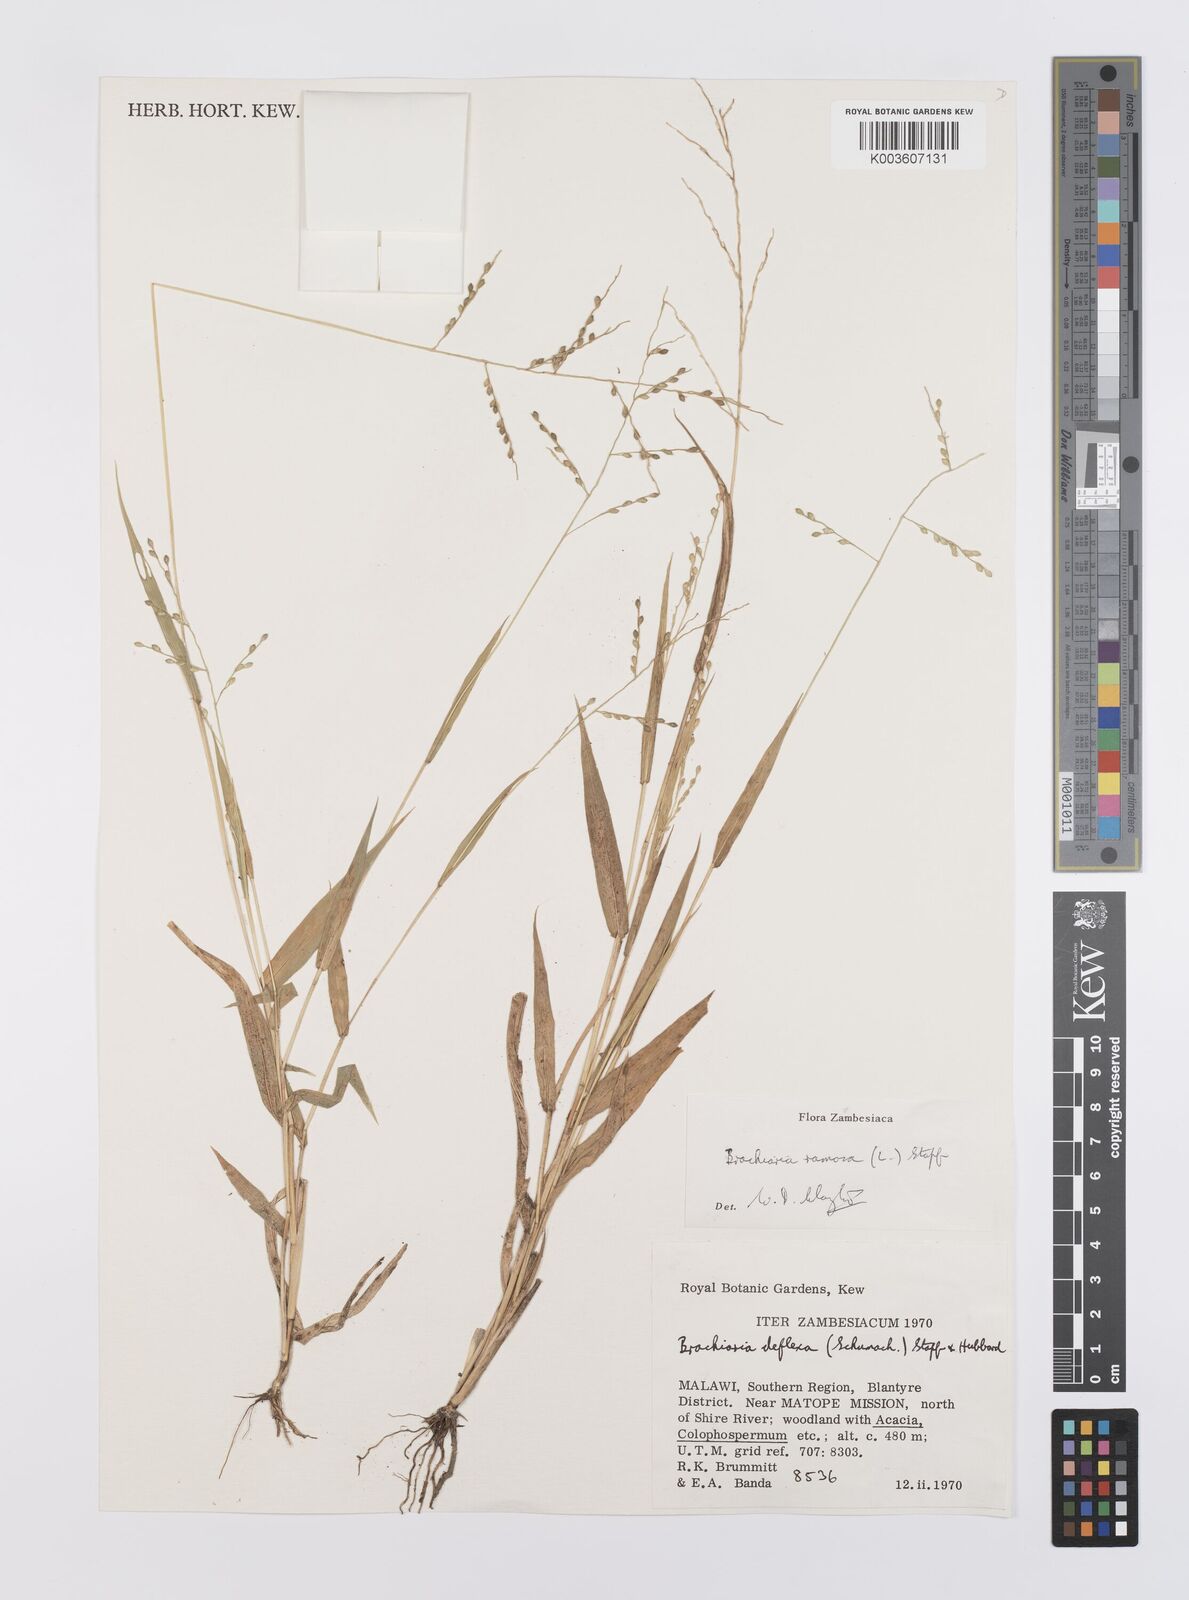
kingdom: Plantae
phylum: Tracheophyta
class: Liliopsida
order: Poales
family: Poaceae
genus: Urochloa
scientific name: Urochloa ramosa
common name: Browntop millet
